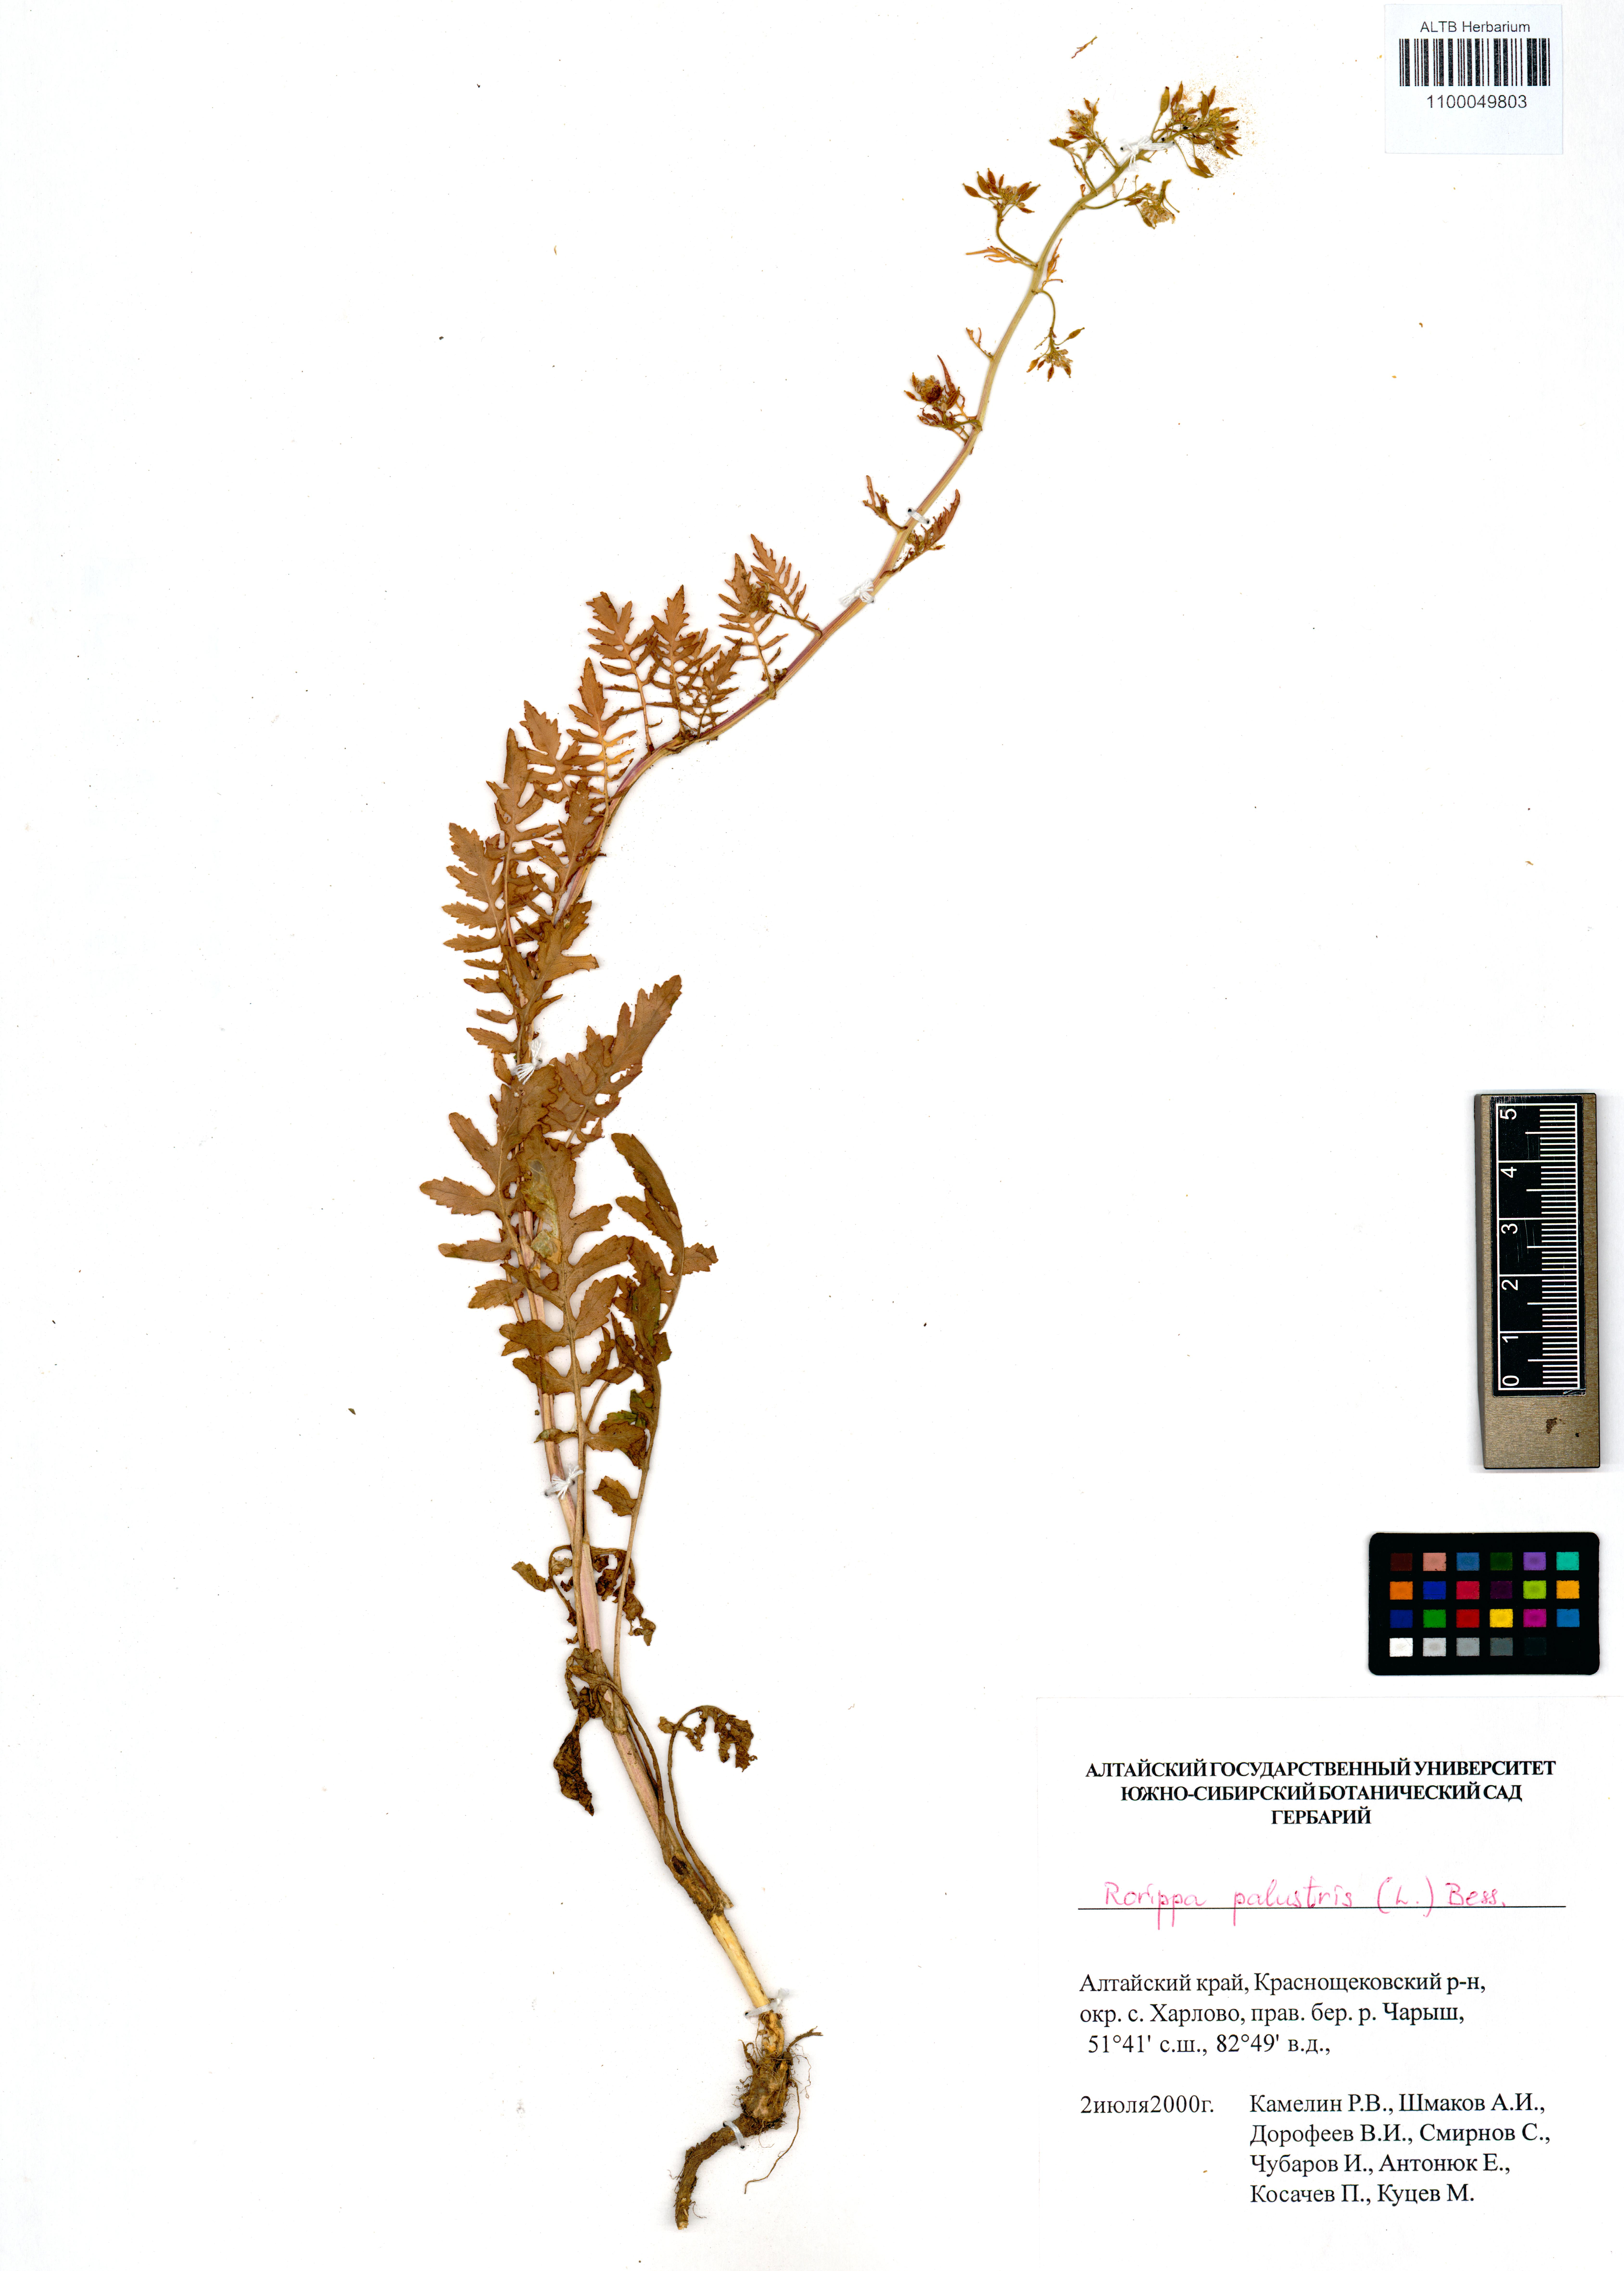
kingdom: Plantae
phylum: Tracheophyta
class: Magnoliopsida
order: Brassicales
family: Brassicaceae
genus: Rorippa
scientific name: Rorippa palustris
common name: Marsh yellow-cress
